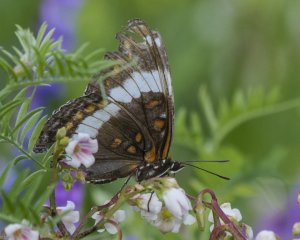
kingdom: Animalia
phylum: Arthropoda
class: Insecta
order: Lepidoptera
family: Nymphalidae
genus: Limenitis
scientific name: Limenitis arthemis
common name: Red-spotted Admiral
